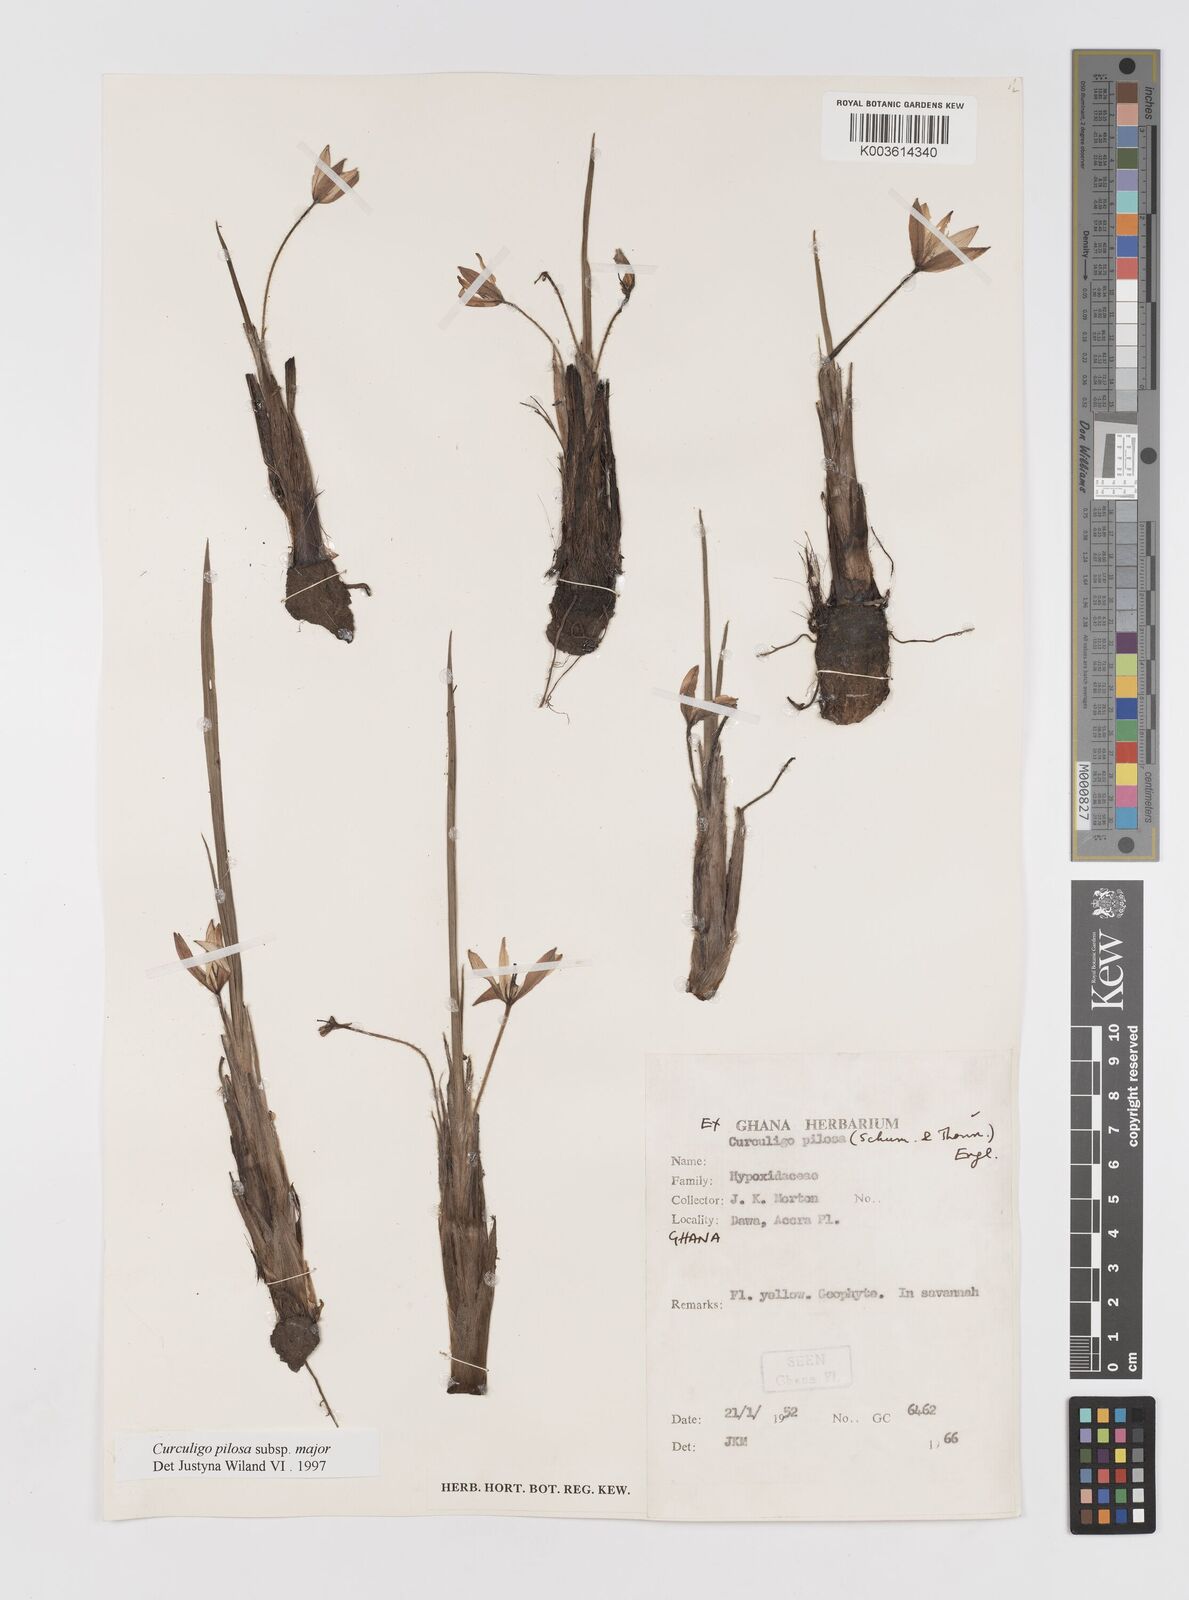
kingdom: Plantae
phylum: Tracheophyta
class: Liliopsida
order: Asparagales
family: Hypoxidaceae
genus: Curculigo
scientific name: Curculigo pilosa
